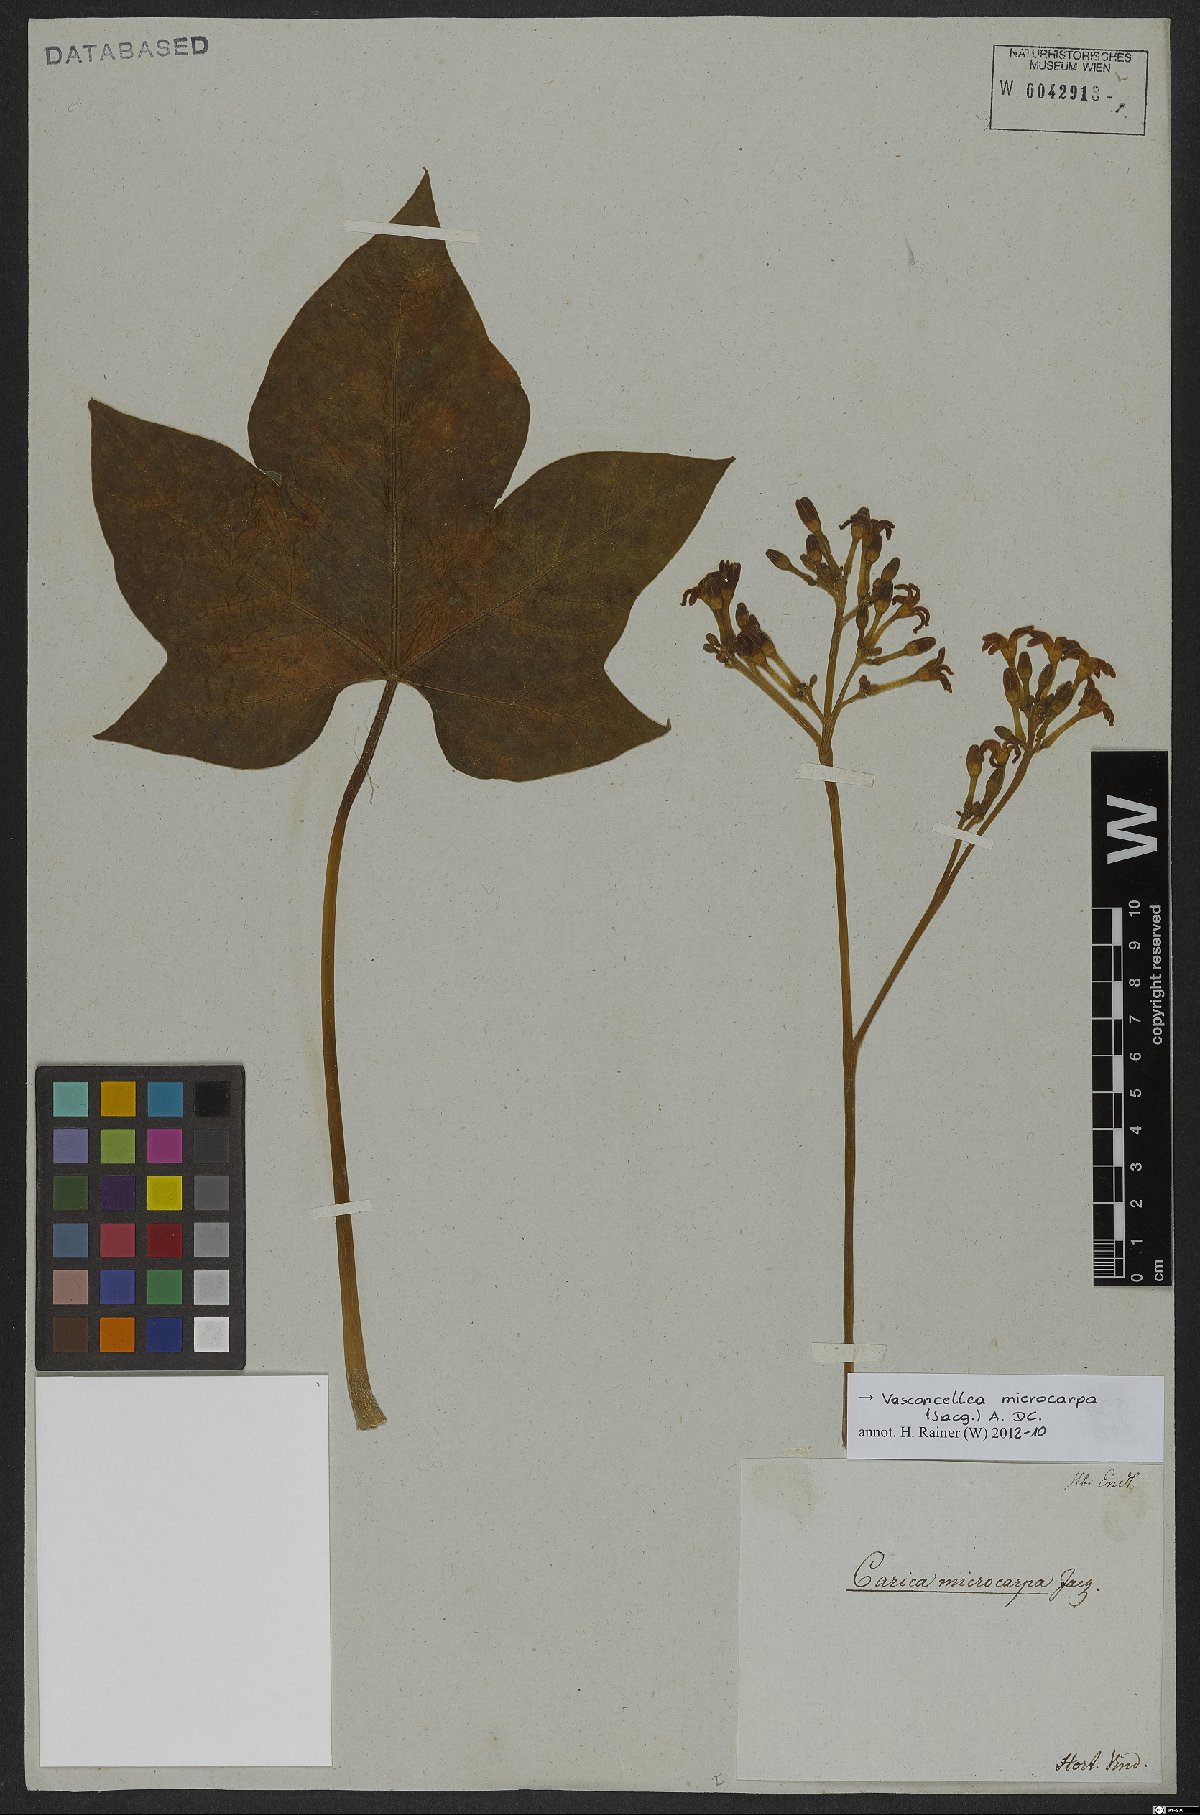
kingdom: Plantae
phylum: Tracheophyta
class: Magnoliopsida
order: Brassicales
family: Caricaceae
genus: Vasconcellea
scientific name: Vasconcellea microcarpa
